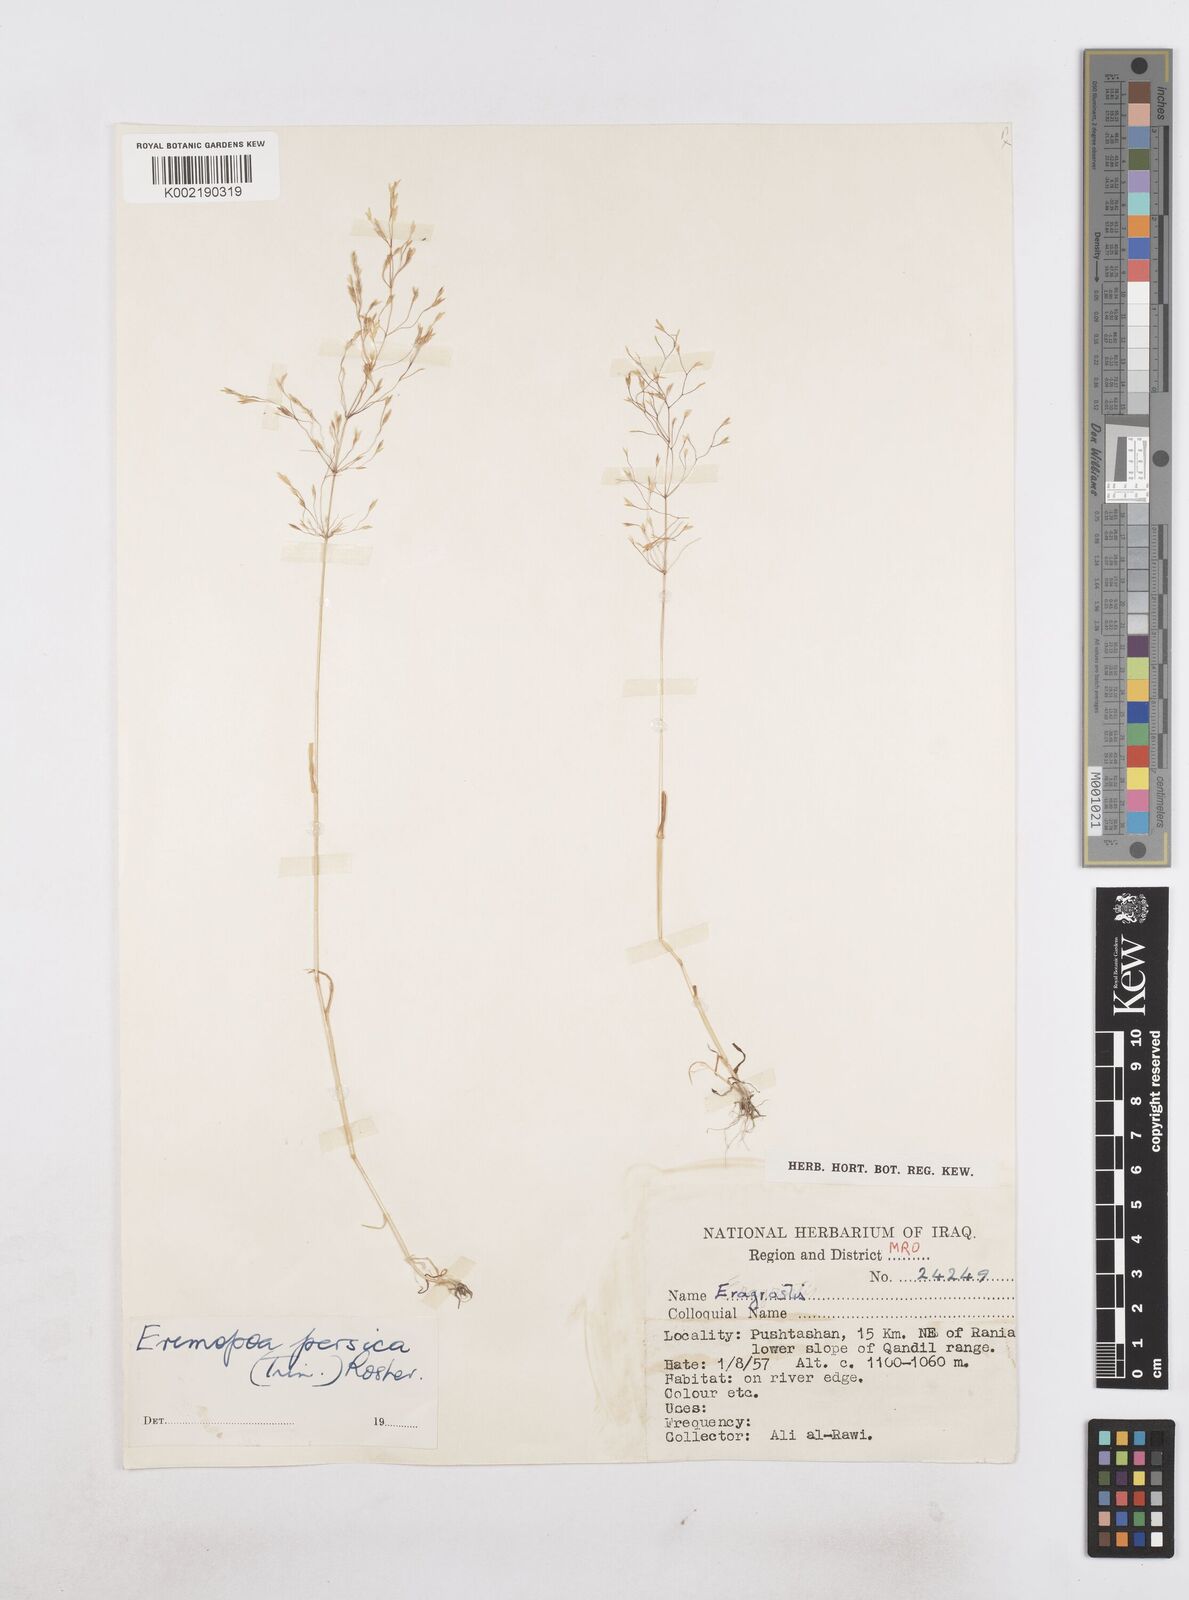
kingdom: Plantae
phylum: Tracheophyta
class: Liliopsida
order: Poales
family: Poaceae
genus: Poa
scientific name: Poa persica
